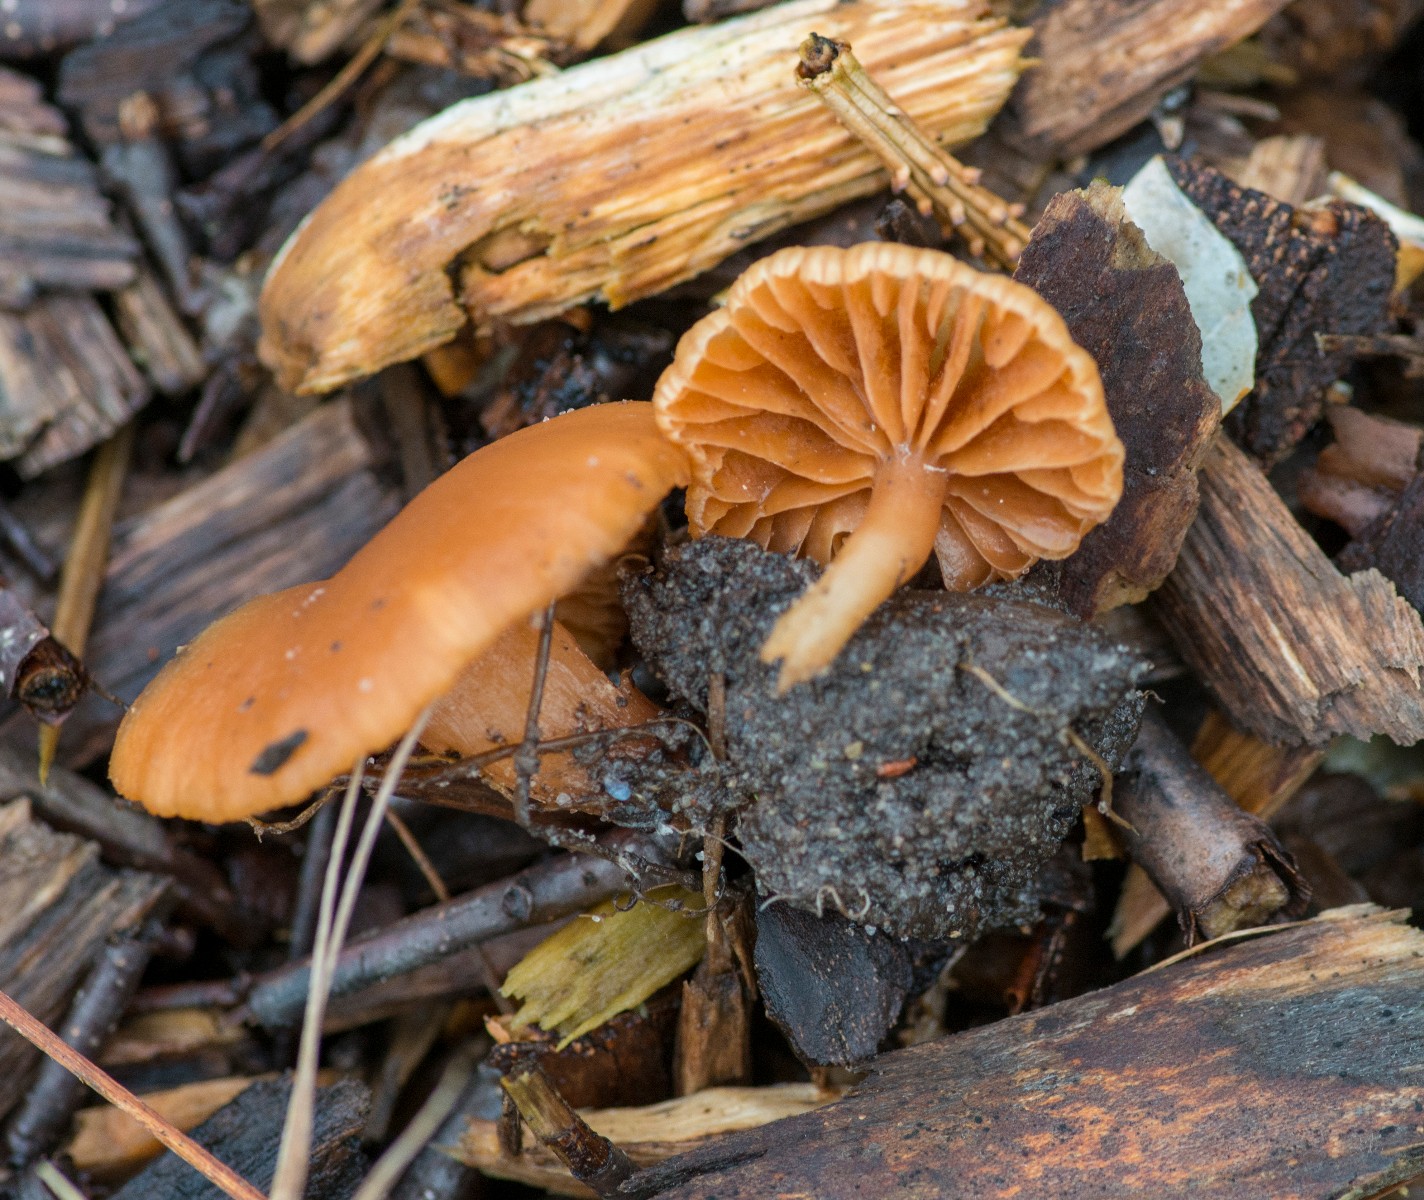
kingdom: Fungi
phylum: Basidiomycota
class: Agaricomycetes
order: Agaricales
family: Tubariaceae
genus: Tubaria
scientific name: Tubaria furfuracea
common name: kliddet fnughat
